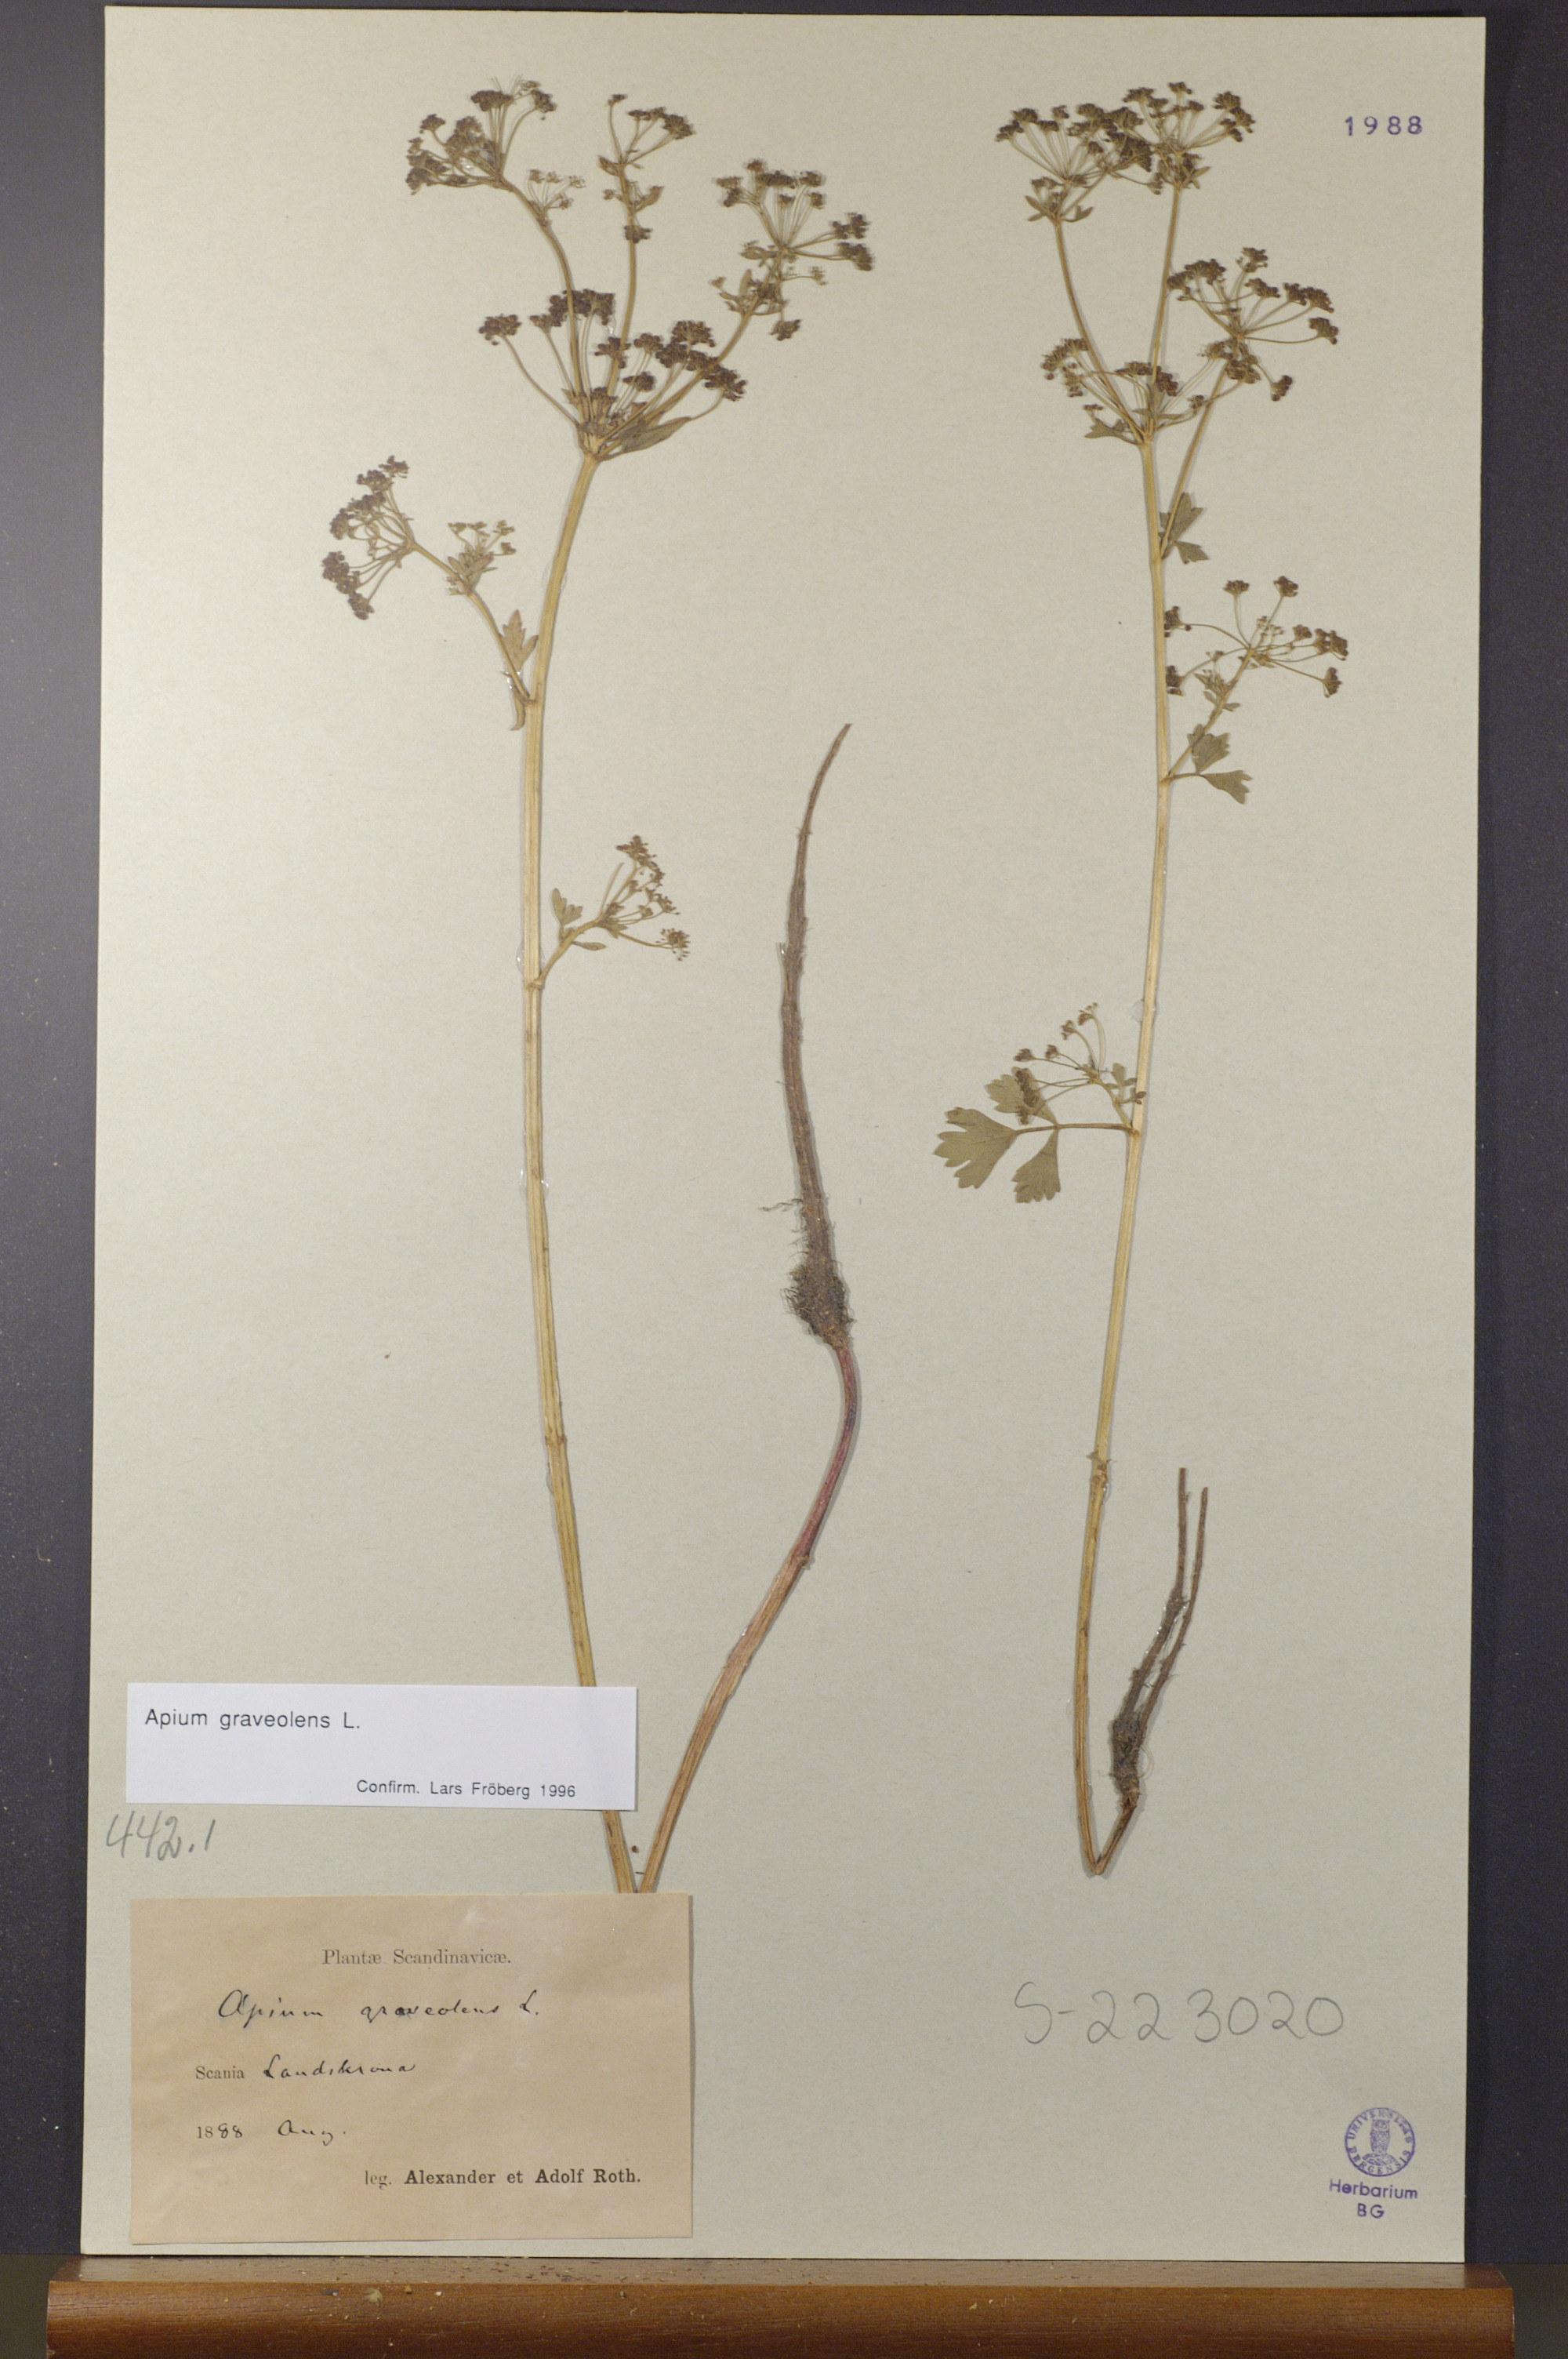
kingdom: Plantae
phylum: Tracheophyta
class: Magnoliopsida
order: Apiales
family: Apiaceae
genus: Apium
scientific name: Apium graveolens
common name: Wild celery
